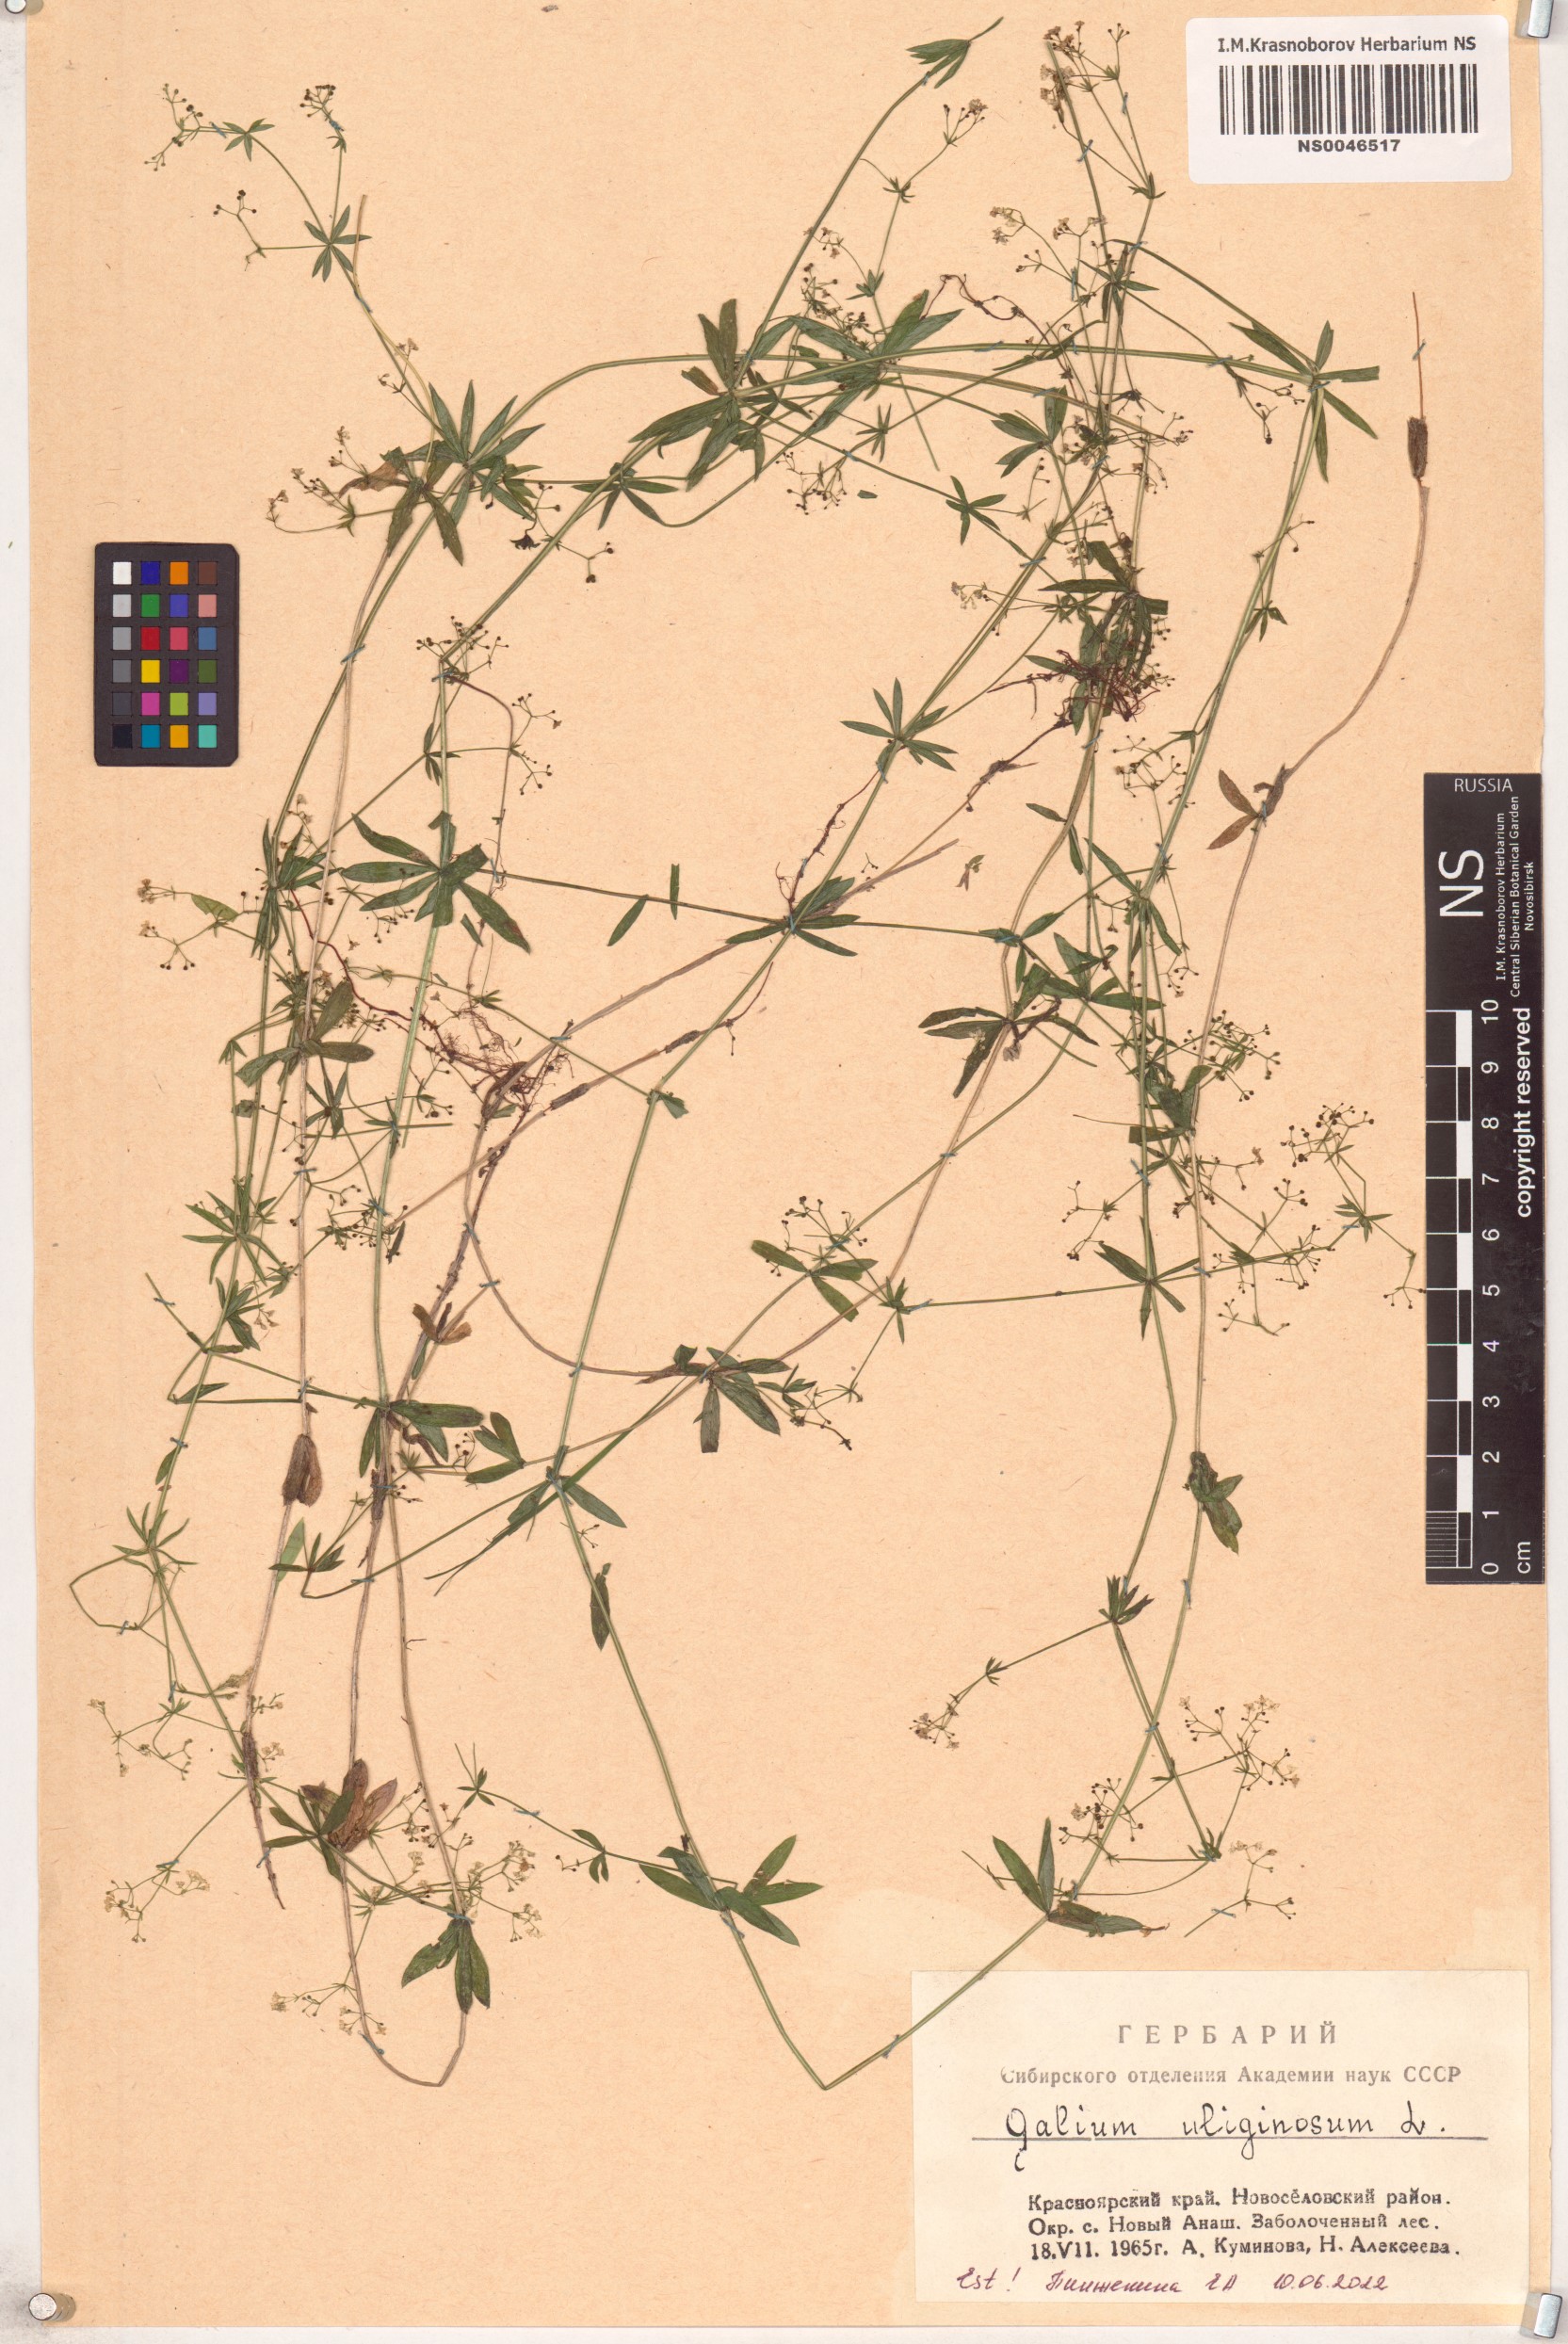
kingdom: Plantae
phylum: Tracheophyta
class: Magnoliopsida
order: Gentianales
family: Rubiaceae
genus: Galium
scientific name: Galium uliginosum
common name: Fen bedstraw
